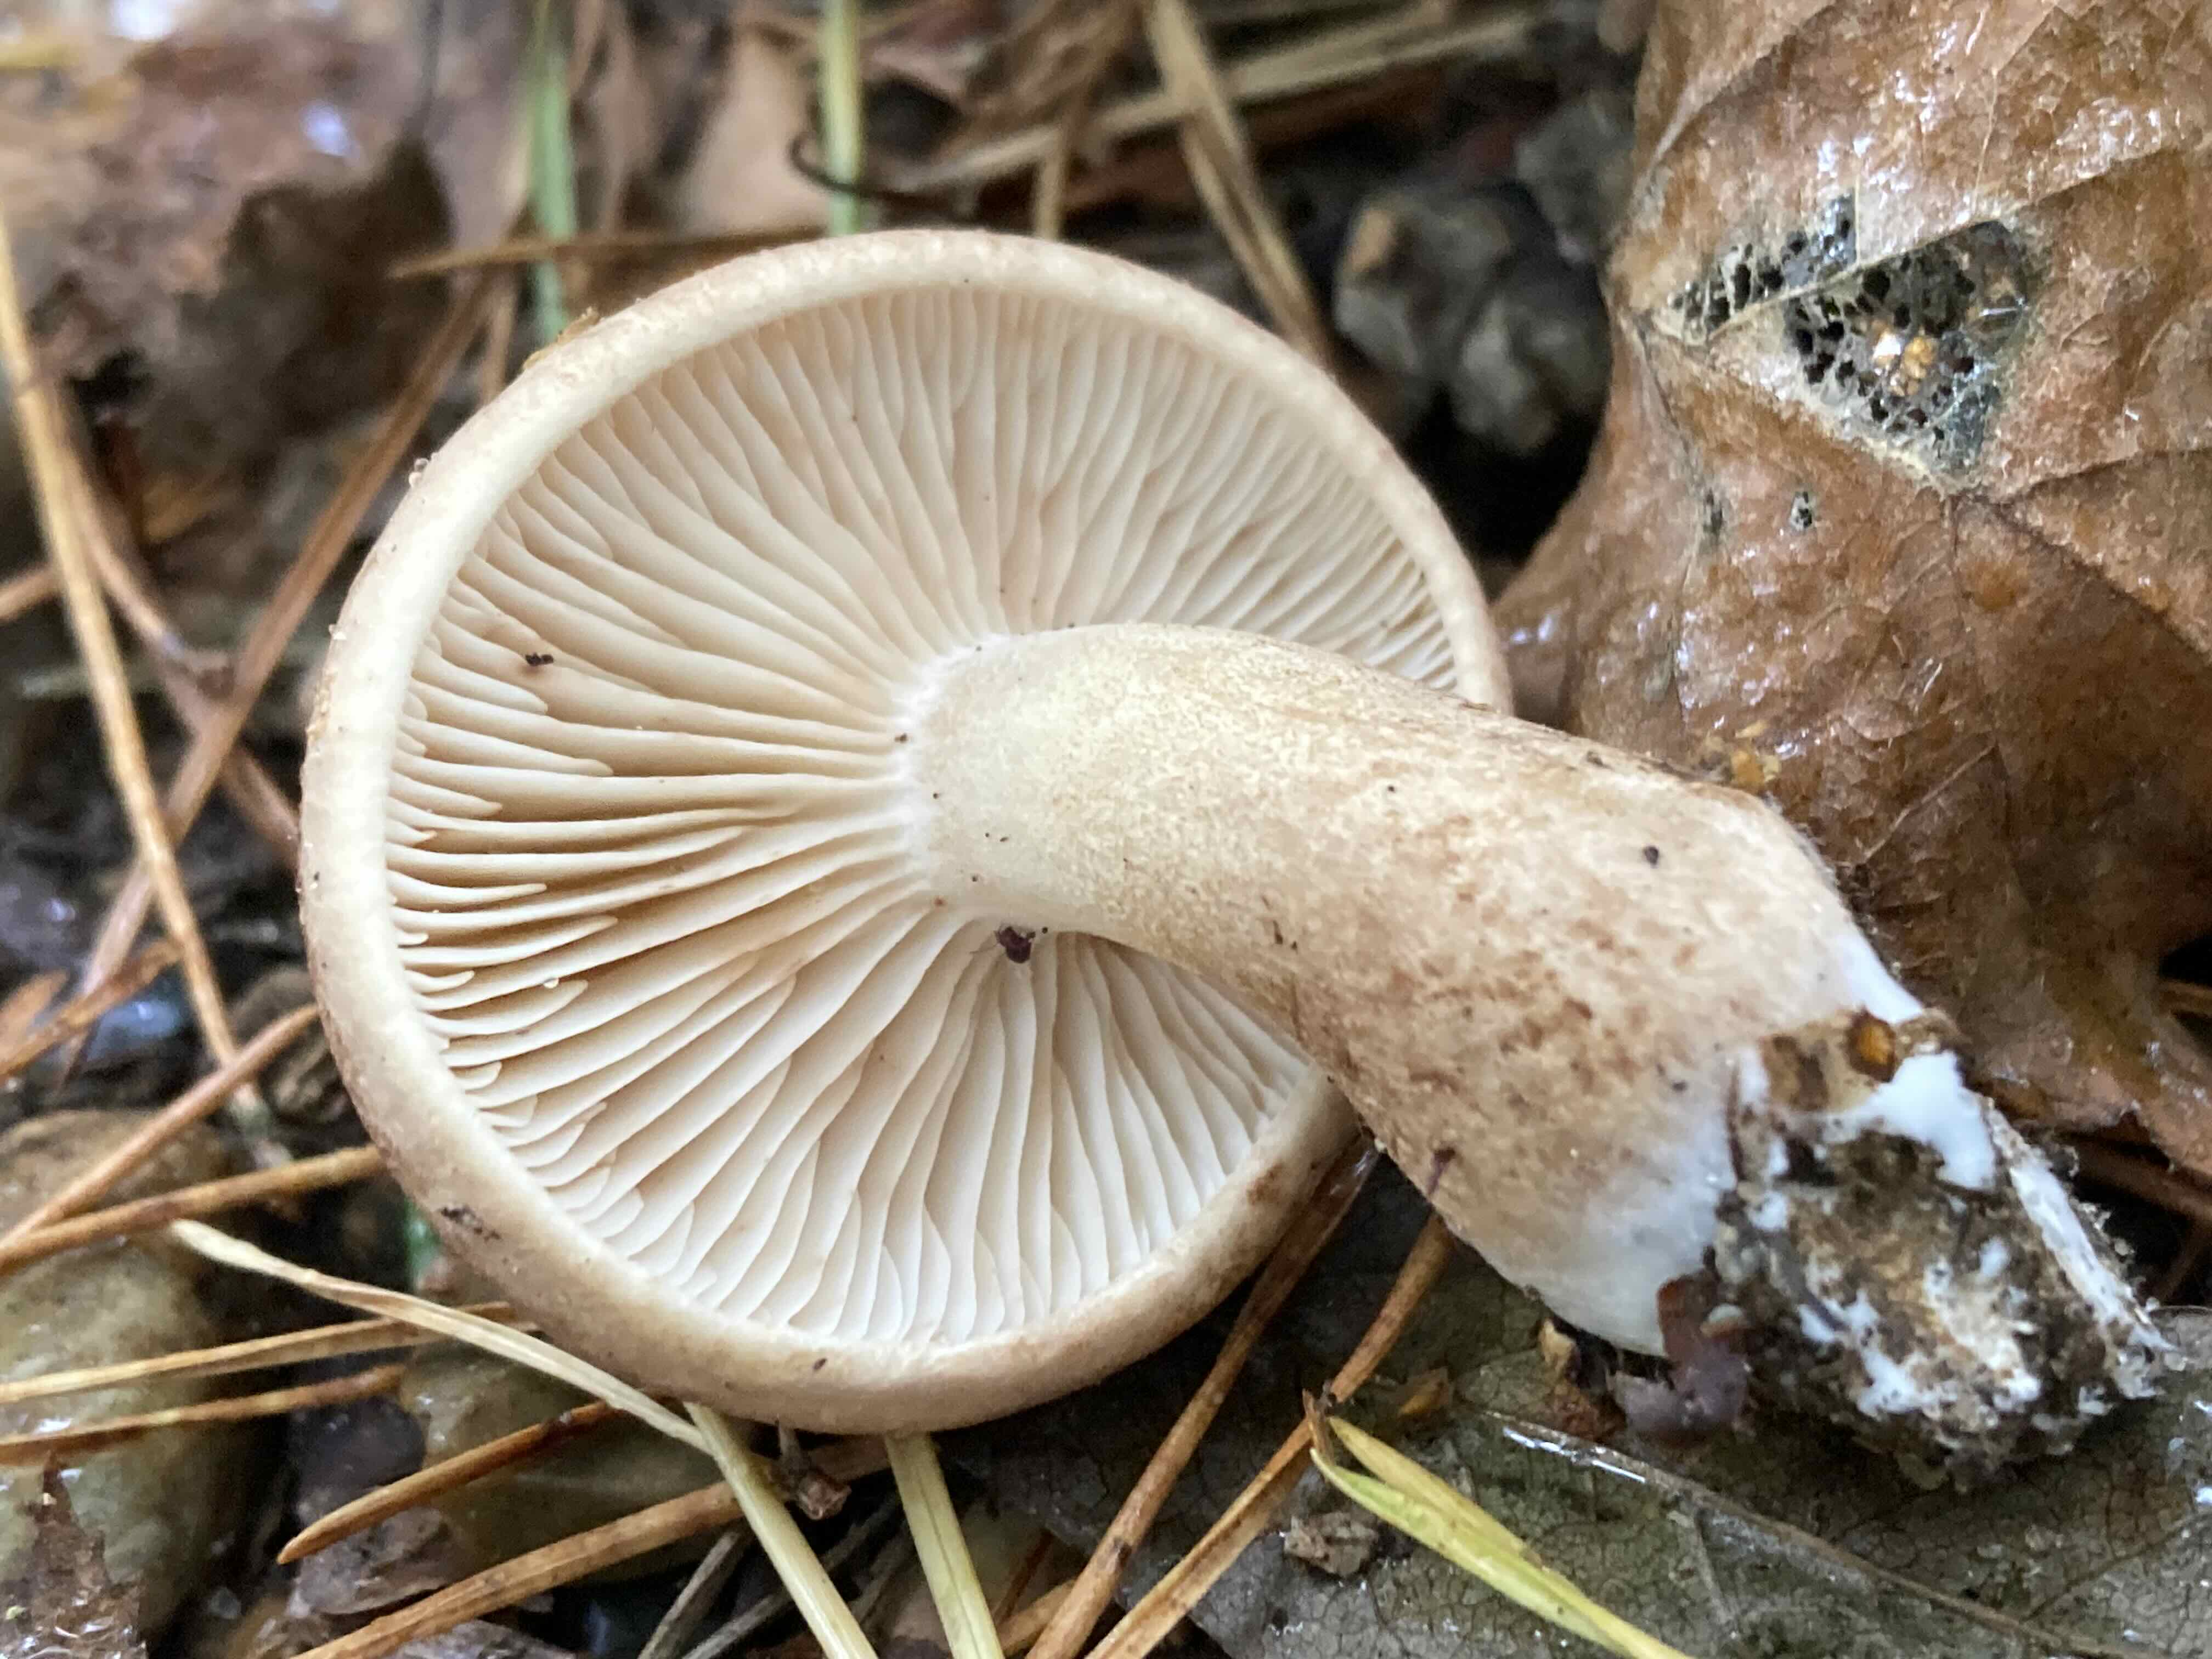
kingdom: Fungi
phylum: Basidiomycota
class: Agaricomycetes
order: Agaricales
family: Tricholomataceae
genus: Tricholoma
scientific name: Tricholoma imbricatum
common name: skællet ridderhat
